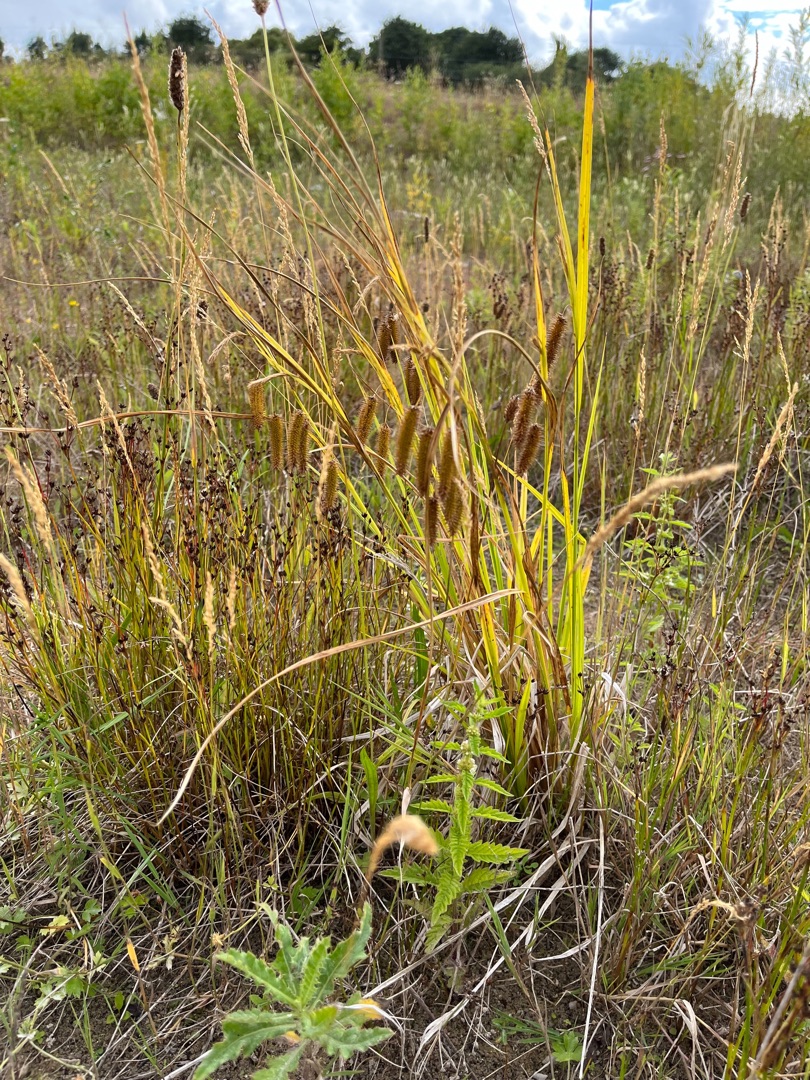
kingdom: Plantae
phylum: Tracheophyta
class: Liliopsida
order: Poales
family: Cyperaceae
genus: Carex
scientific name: Carex pseudocyperus
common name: Knippe-star
